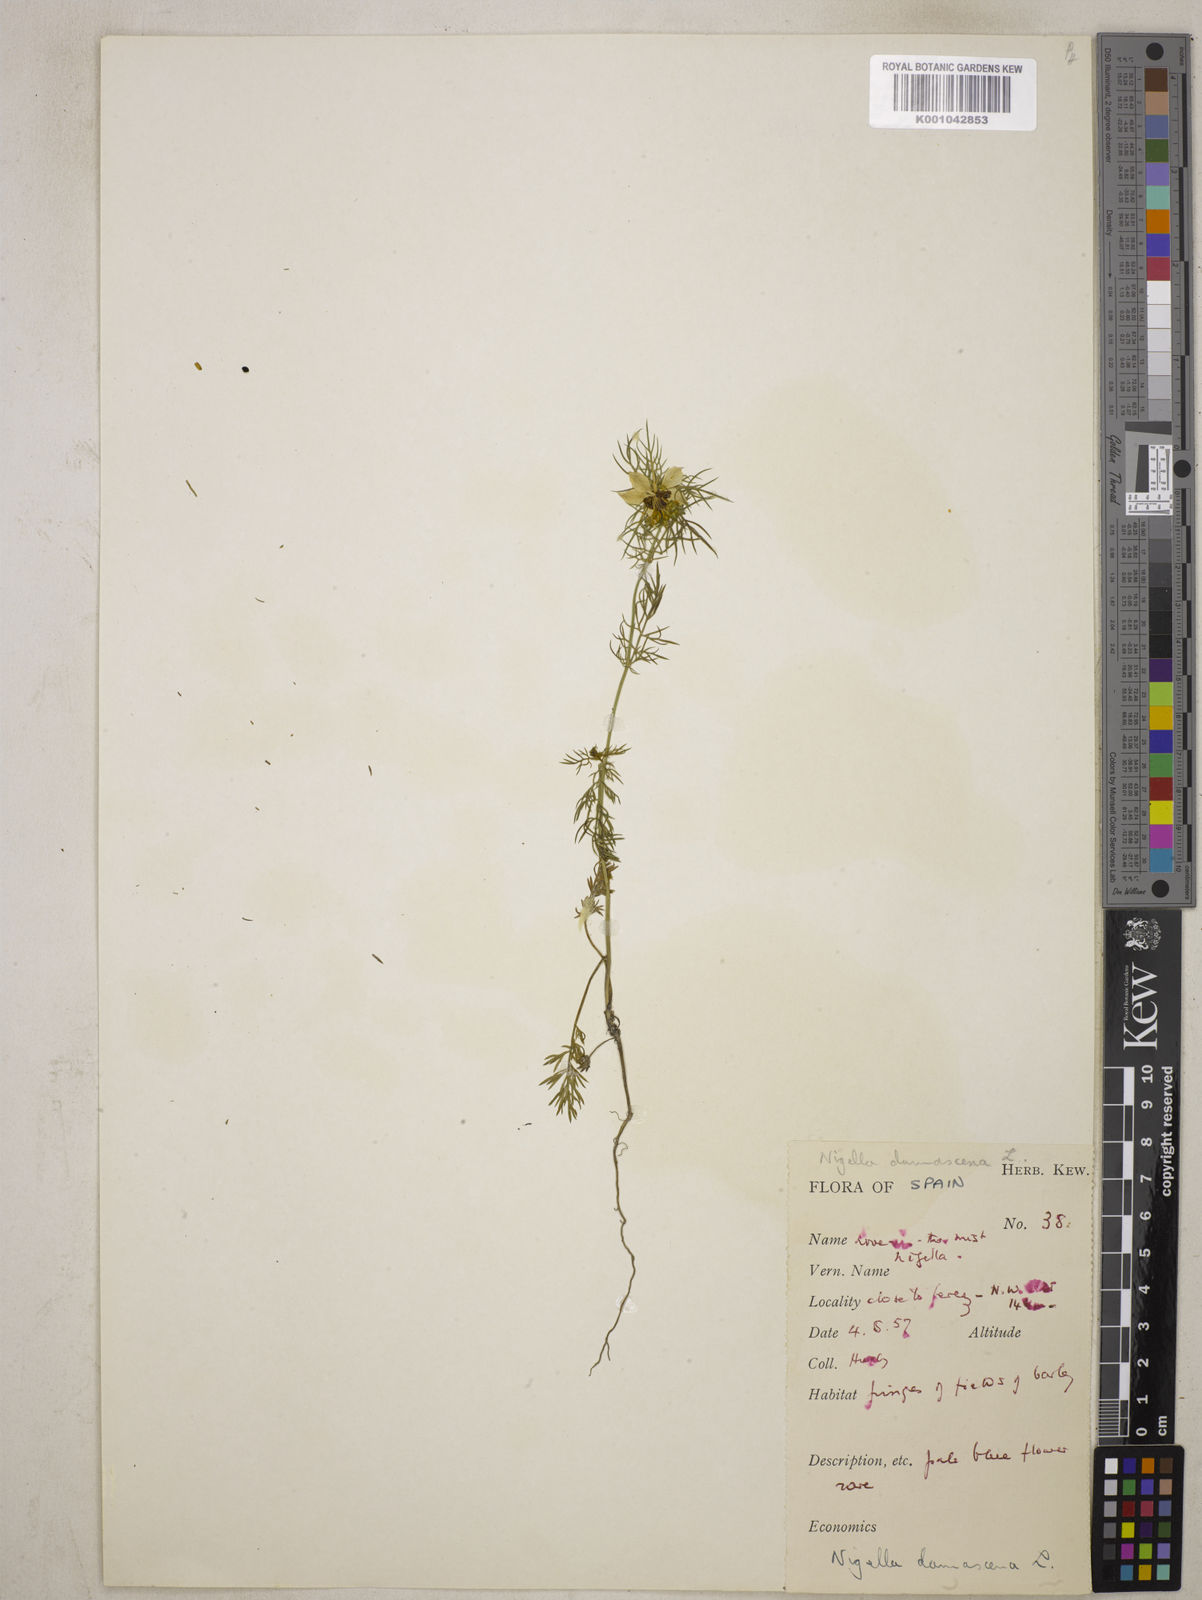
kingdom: Plantae
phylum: Tracheophyta
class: Magnoliopsida
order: Ranunculales
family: Ranunculaceae
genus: Nigella
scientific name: Nigella damascena
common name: Love-in-a-mist
